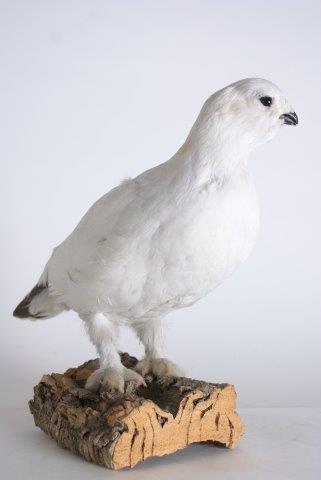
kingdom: Animalia
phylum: Chordata
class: Aves
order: Galliformes
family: Phasianidae
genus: Lagopus
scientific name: Lagopus lagopus
